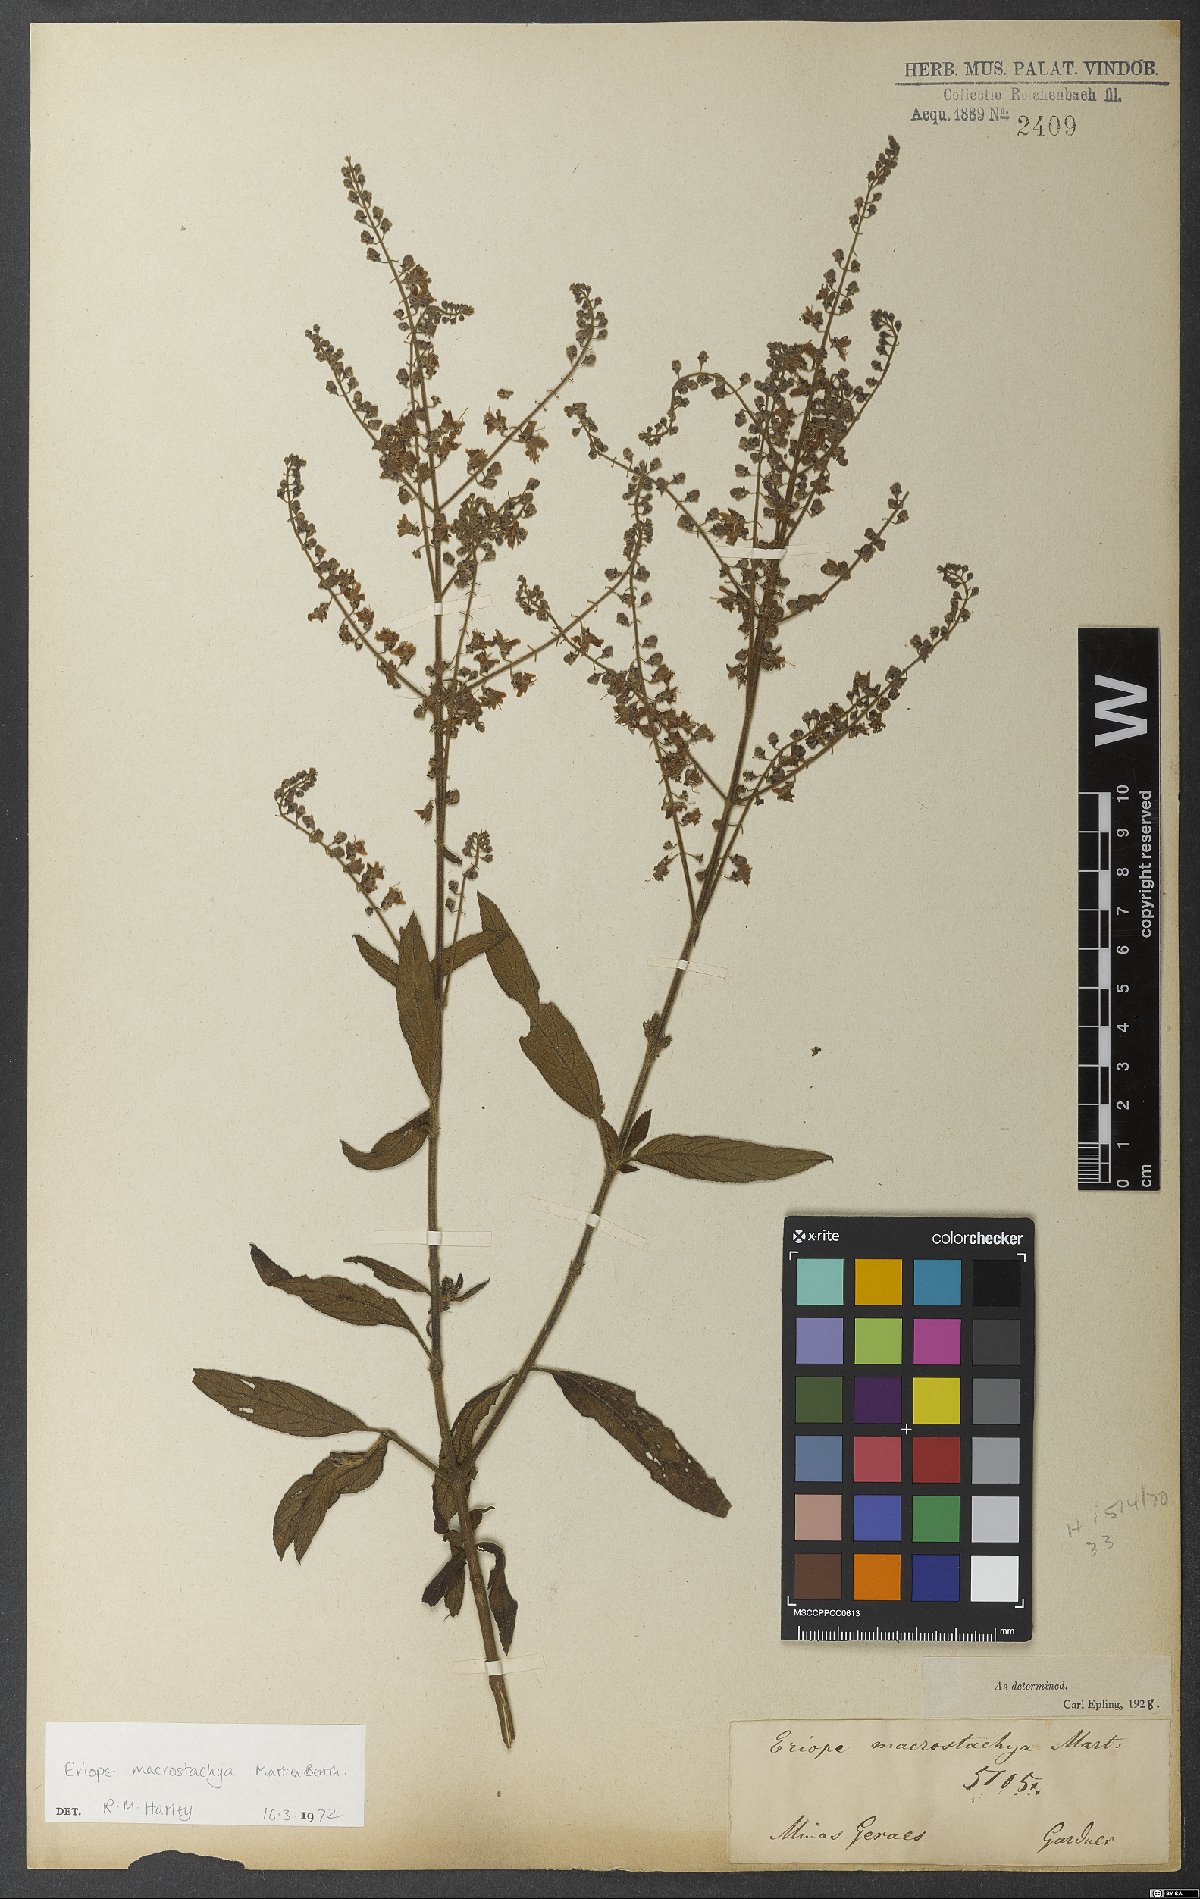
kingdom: Plantae
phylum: Tracheophyta
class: Magnoliopsida
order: Lamiales
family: Lamiaceae
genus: Eriope
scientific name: Eriope macrostachya
